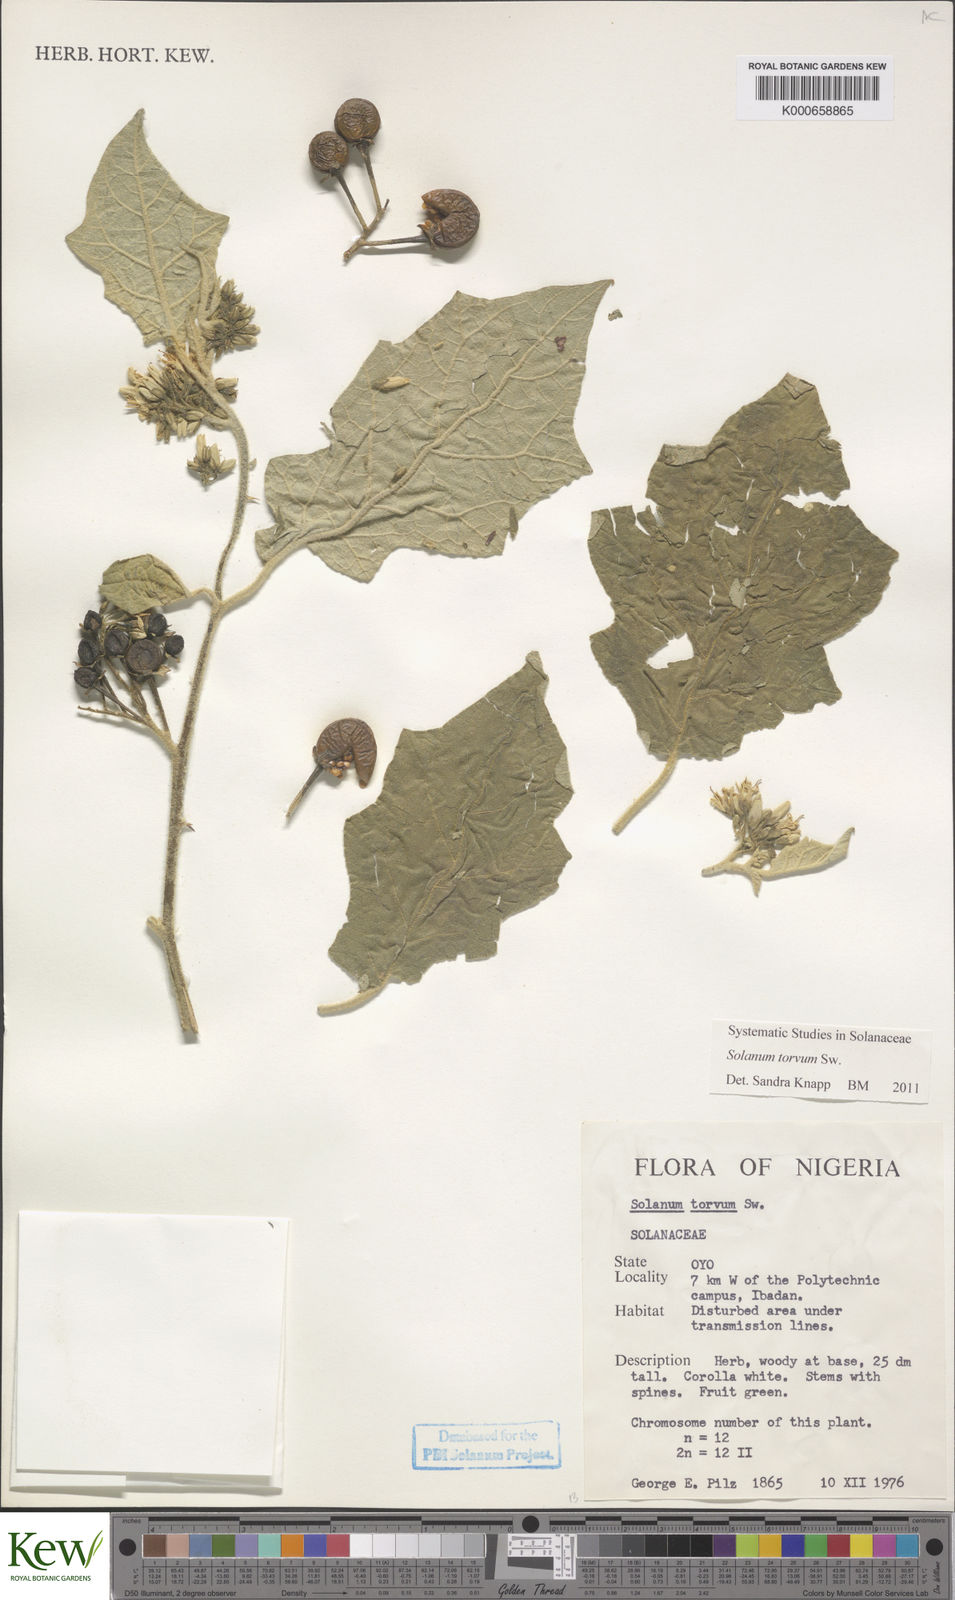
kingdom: Plantae
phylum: Tracheophyta
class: Magnoliopsida
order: Solanales
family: Solanaceae
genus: Solanum
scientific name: Solanum torvum
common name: Turkey berry
